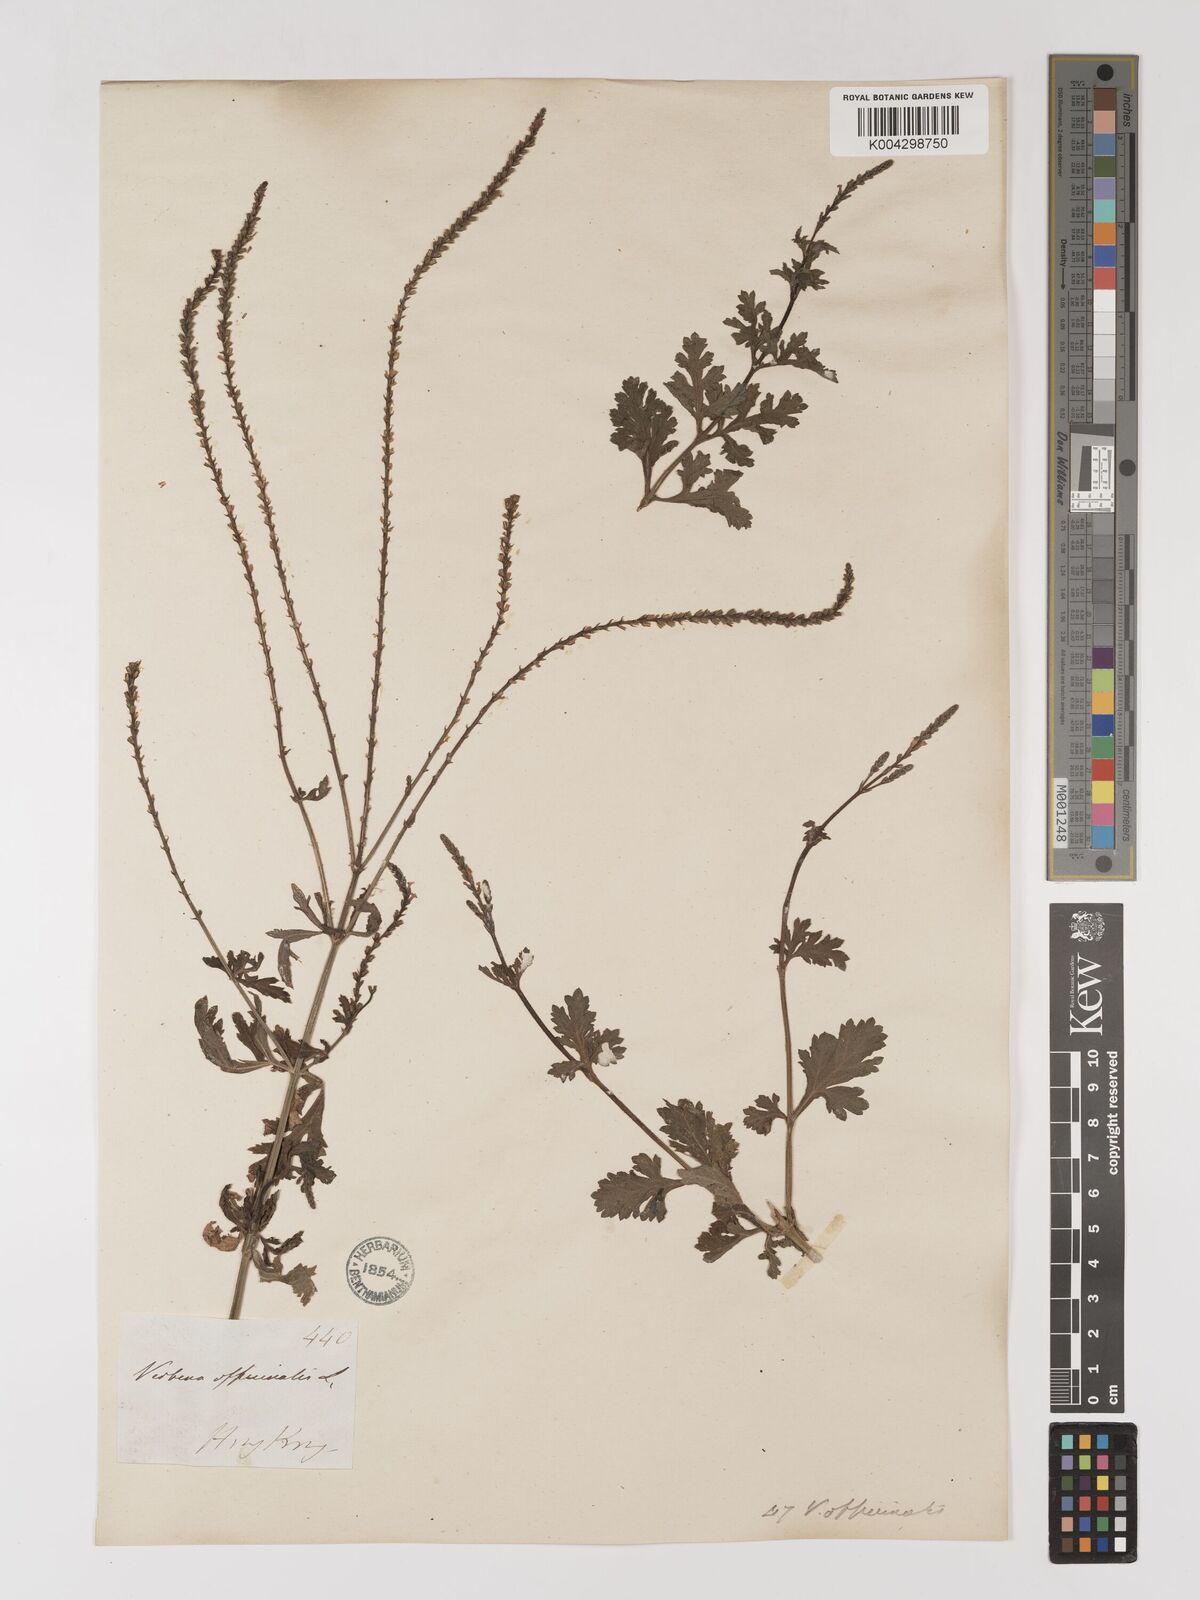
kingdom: Plantae
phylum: Tracheophyta
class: Magnoliopsida
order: Lamiales
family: Verbenaceae
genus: Verbena
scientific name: Verbena officinalis
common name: Vervain
